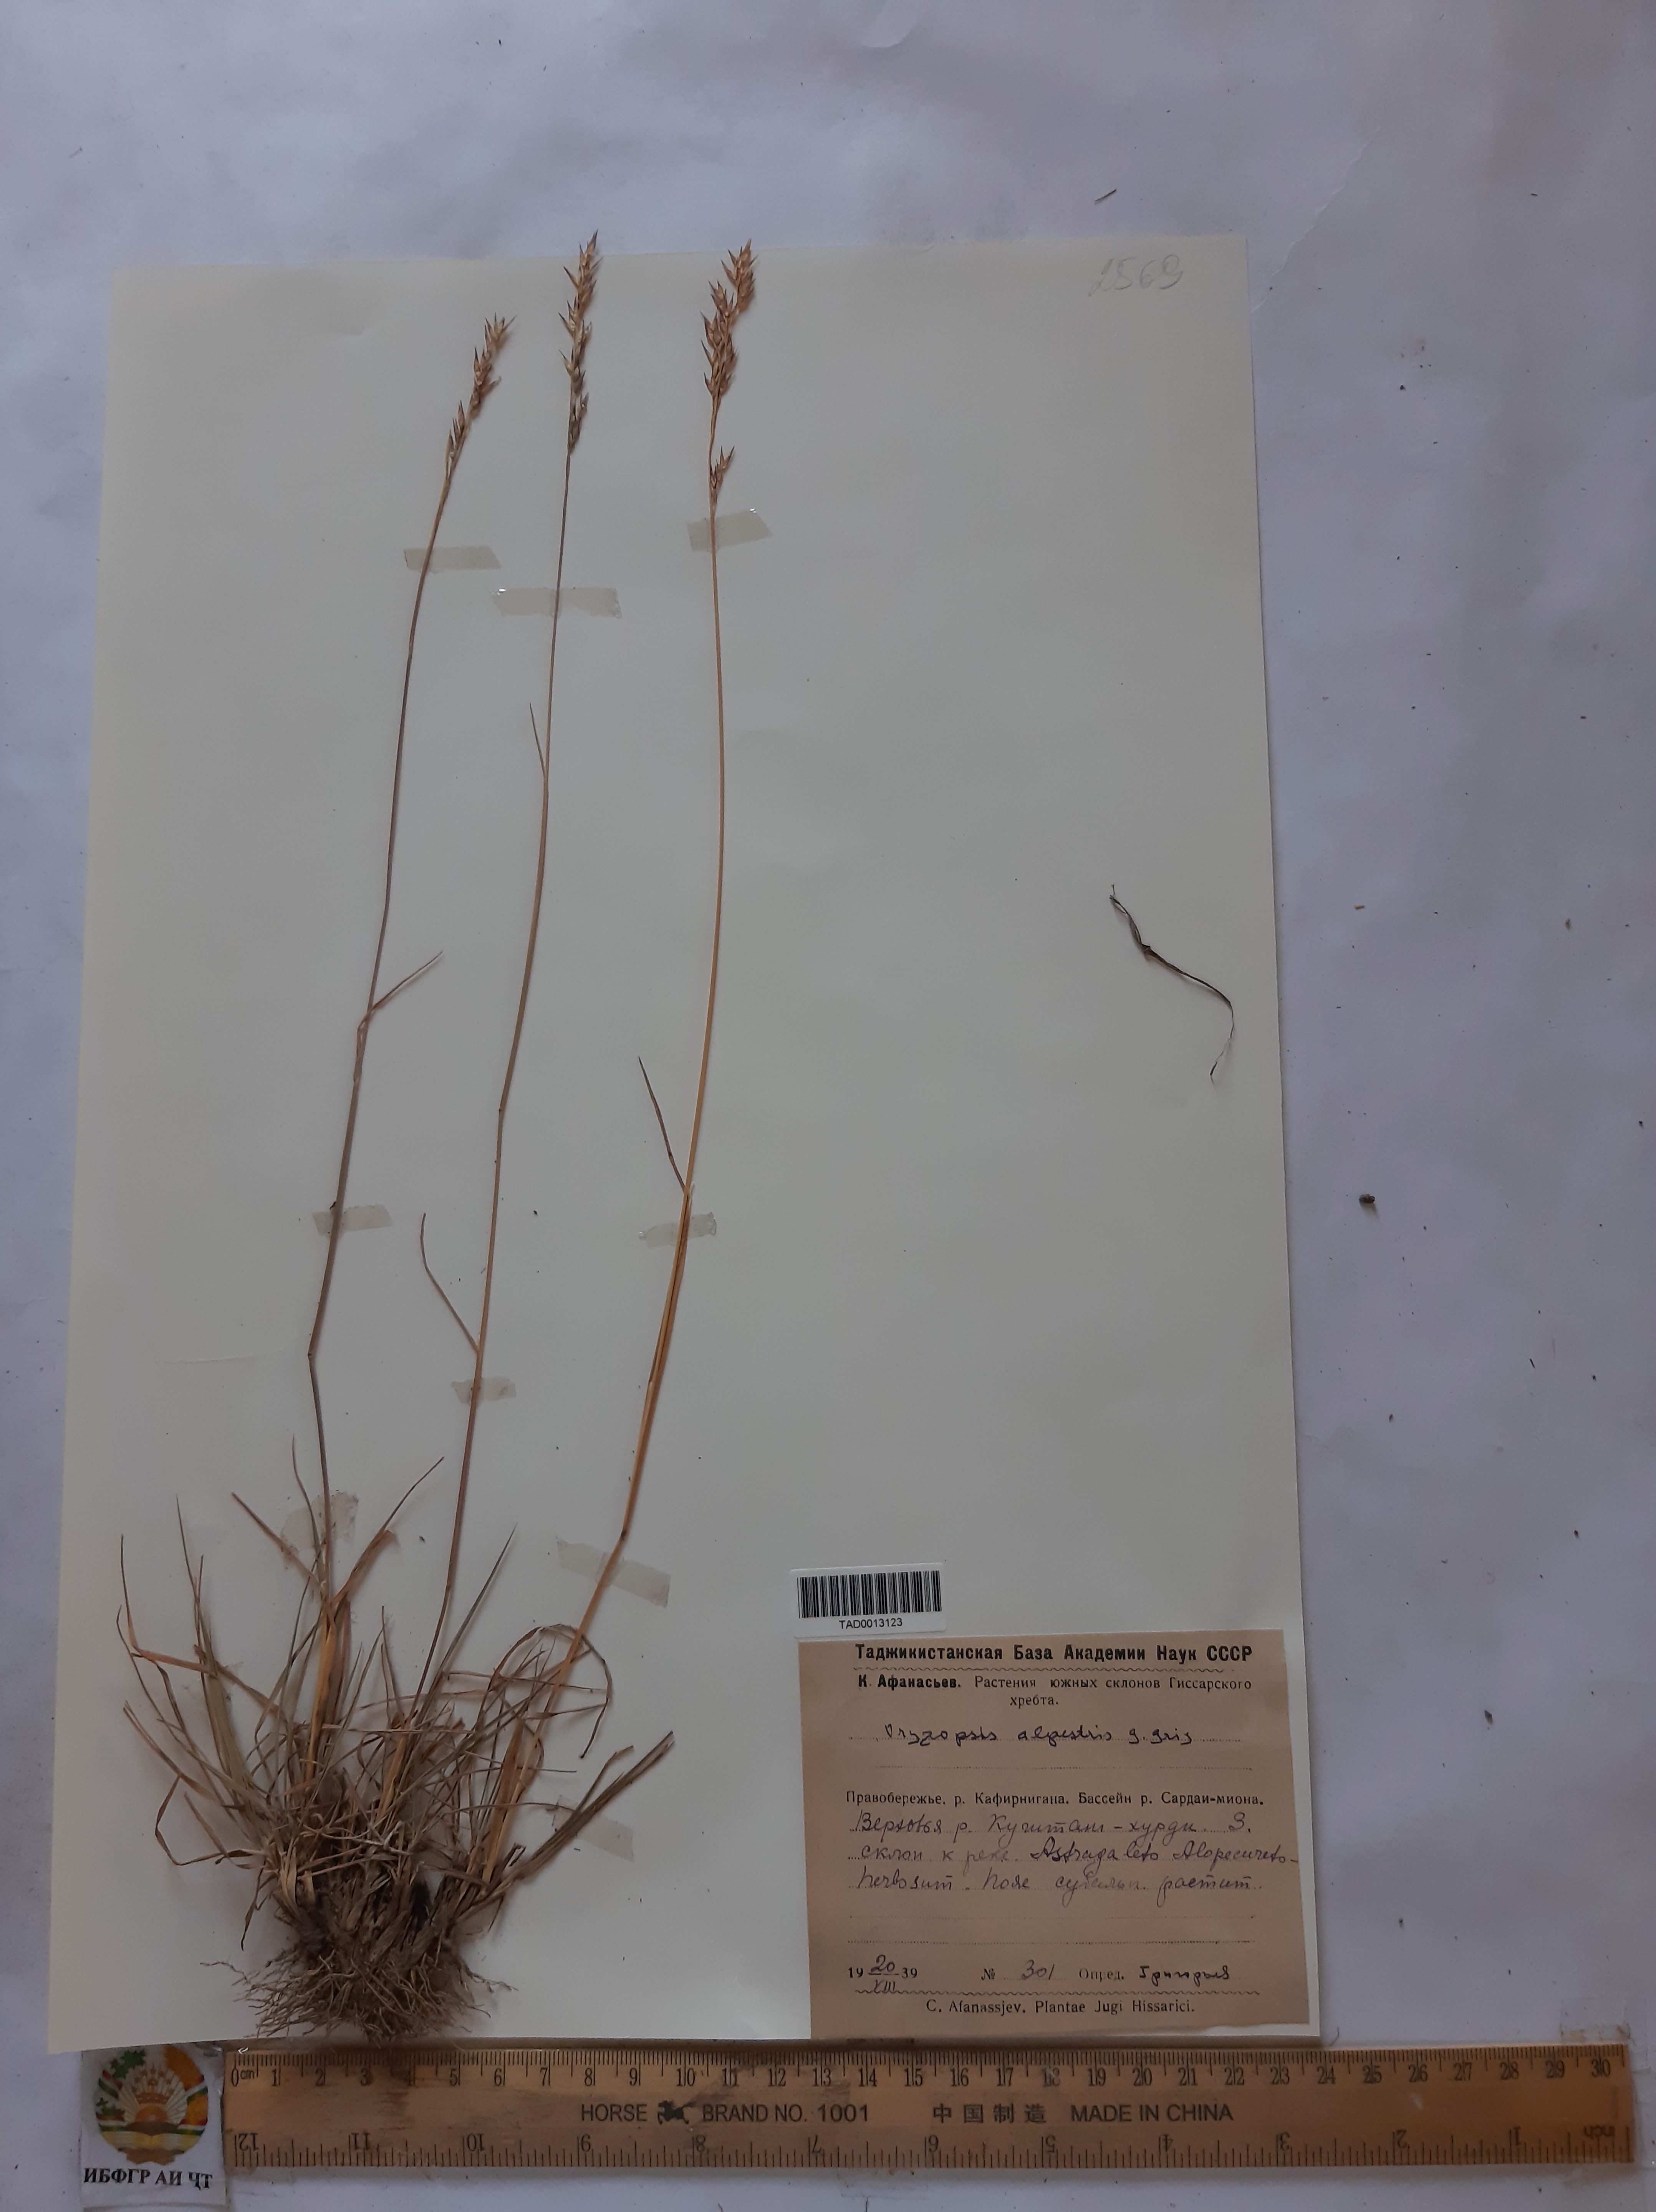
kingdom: Plantae
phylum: Tracheophyta
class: Liliopsida
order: Poales
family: Poaceae
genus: Piptatherum
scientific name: Piptatherum alpestre
